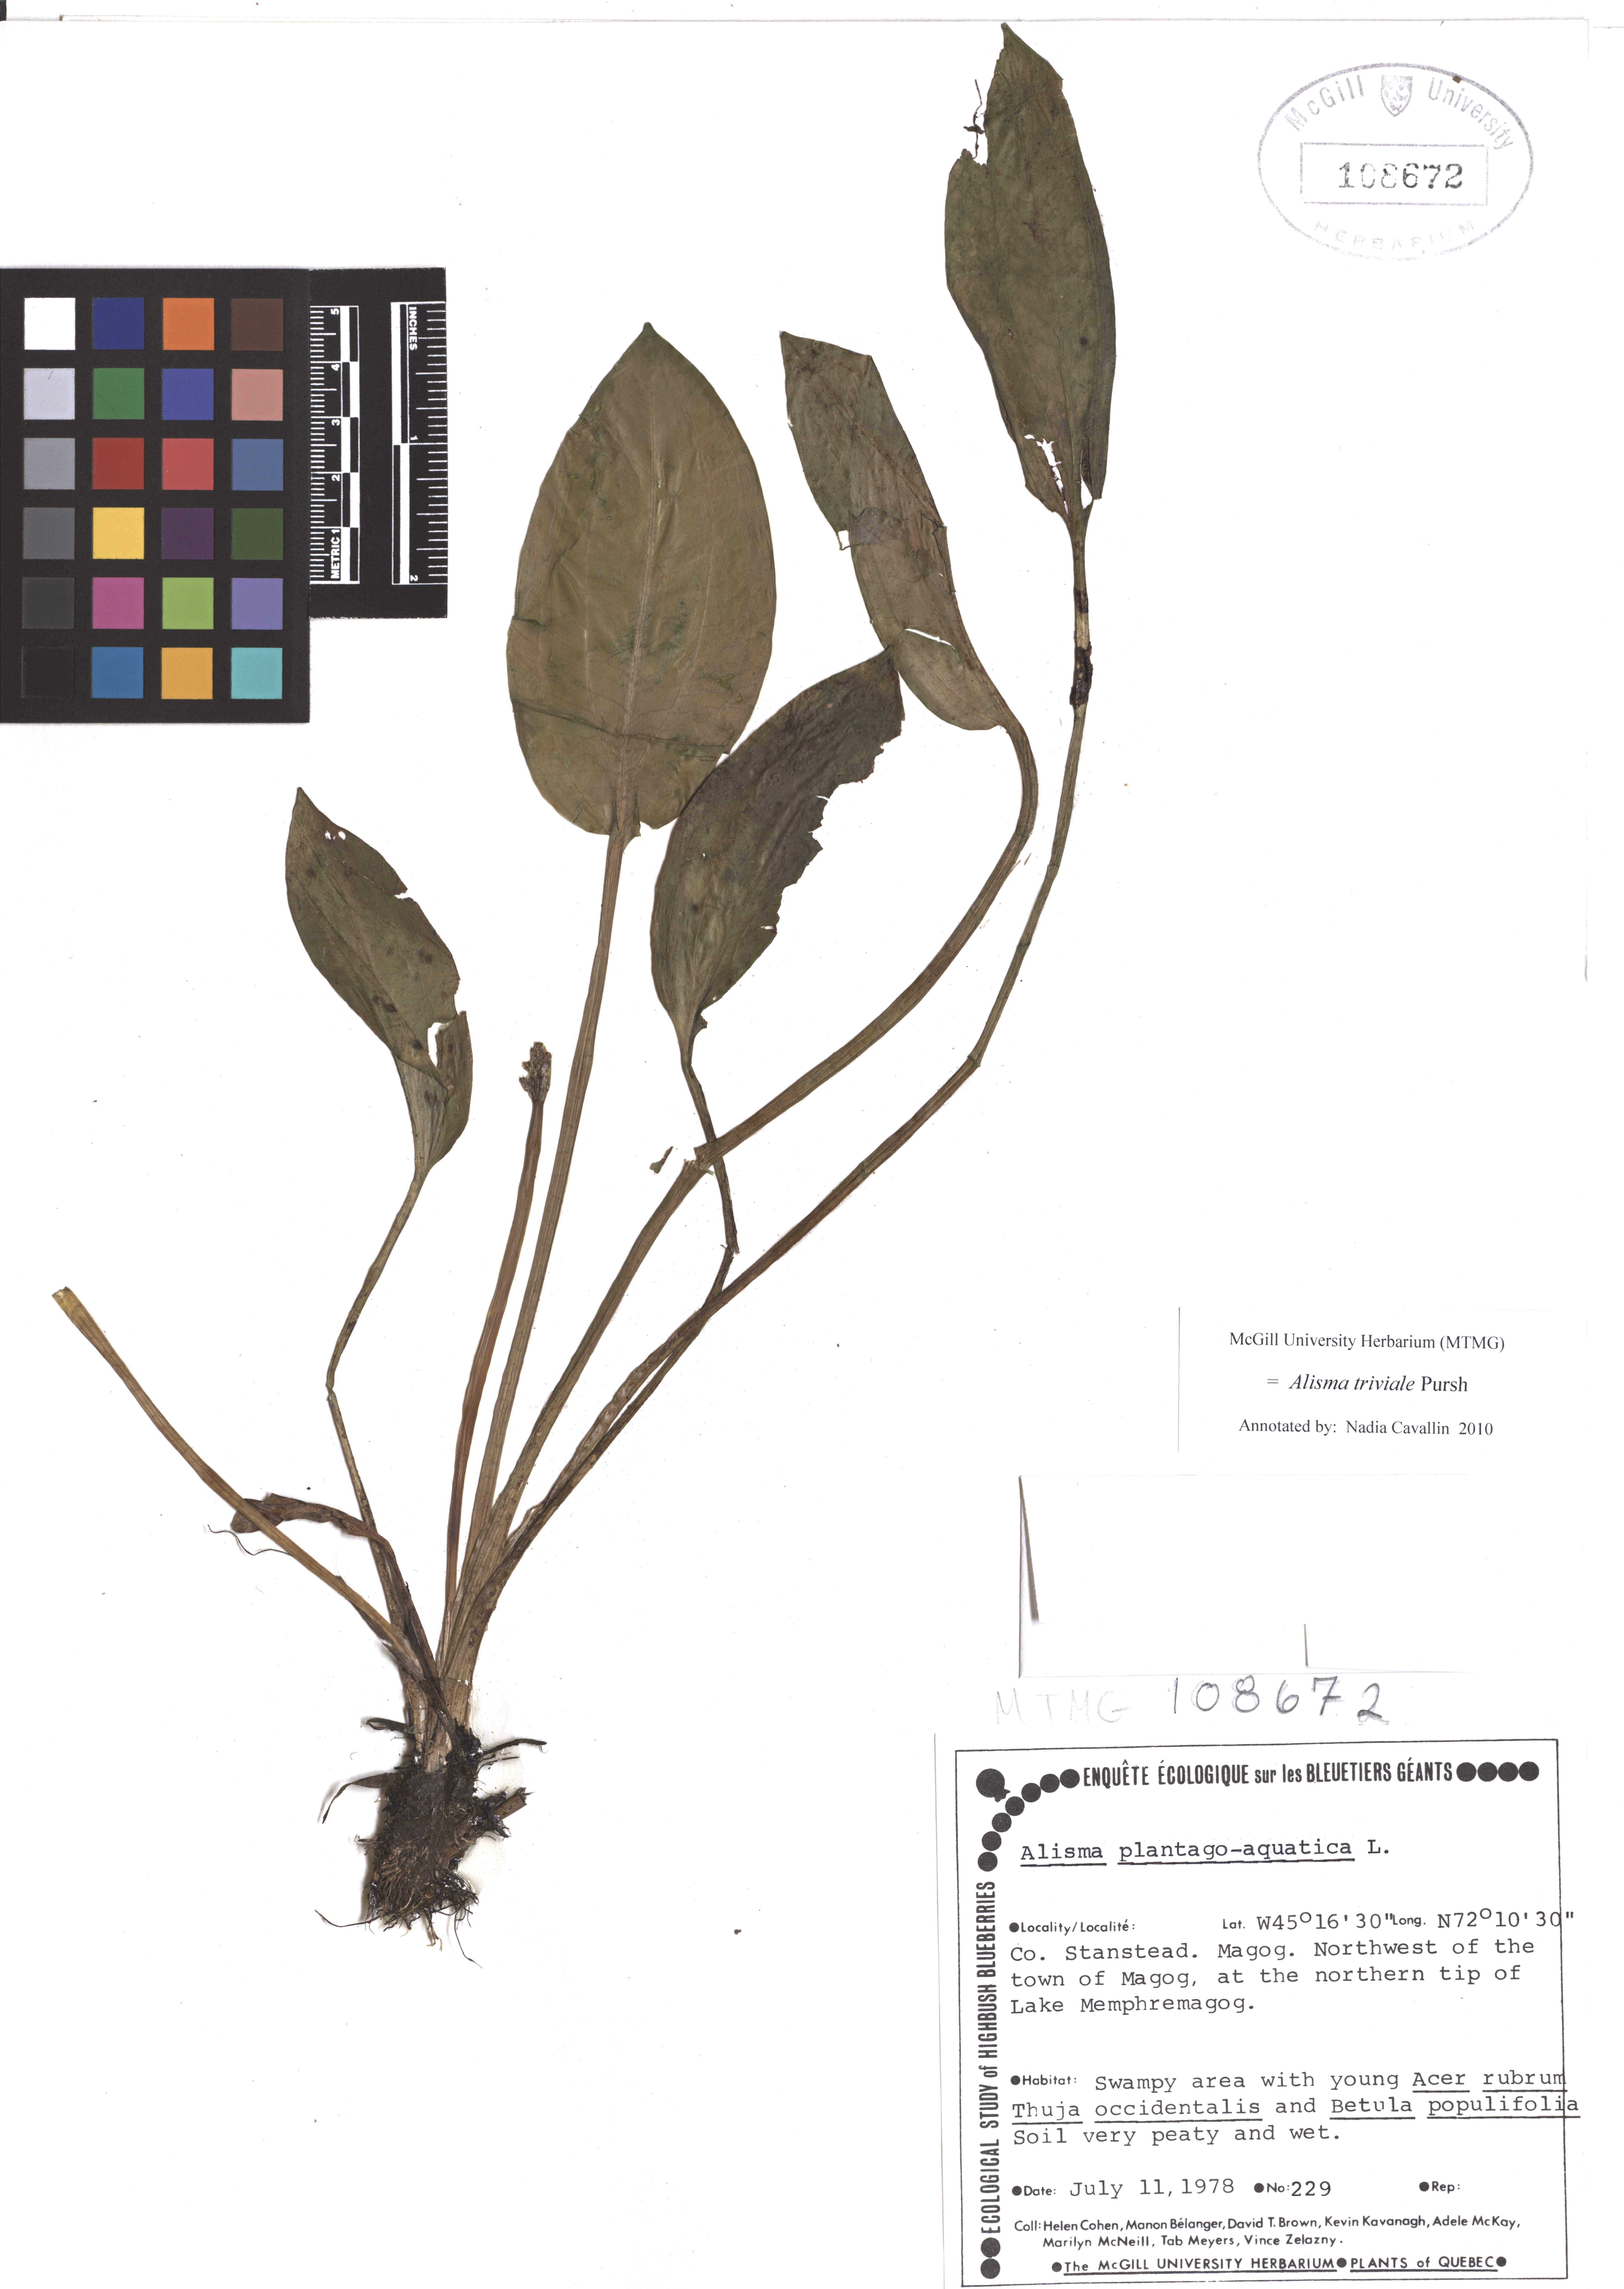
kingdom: Plantae
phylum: Tracheophyta
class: Liliopsida
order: Alismatales
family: Alismataceae
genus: Alisma
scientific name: Alisma plantago-aquatica
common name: Water-plantain
